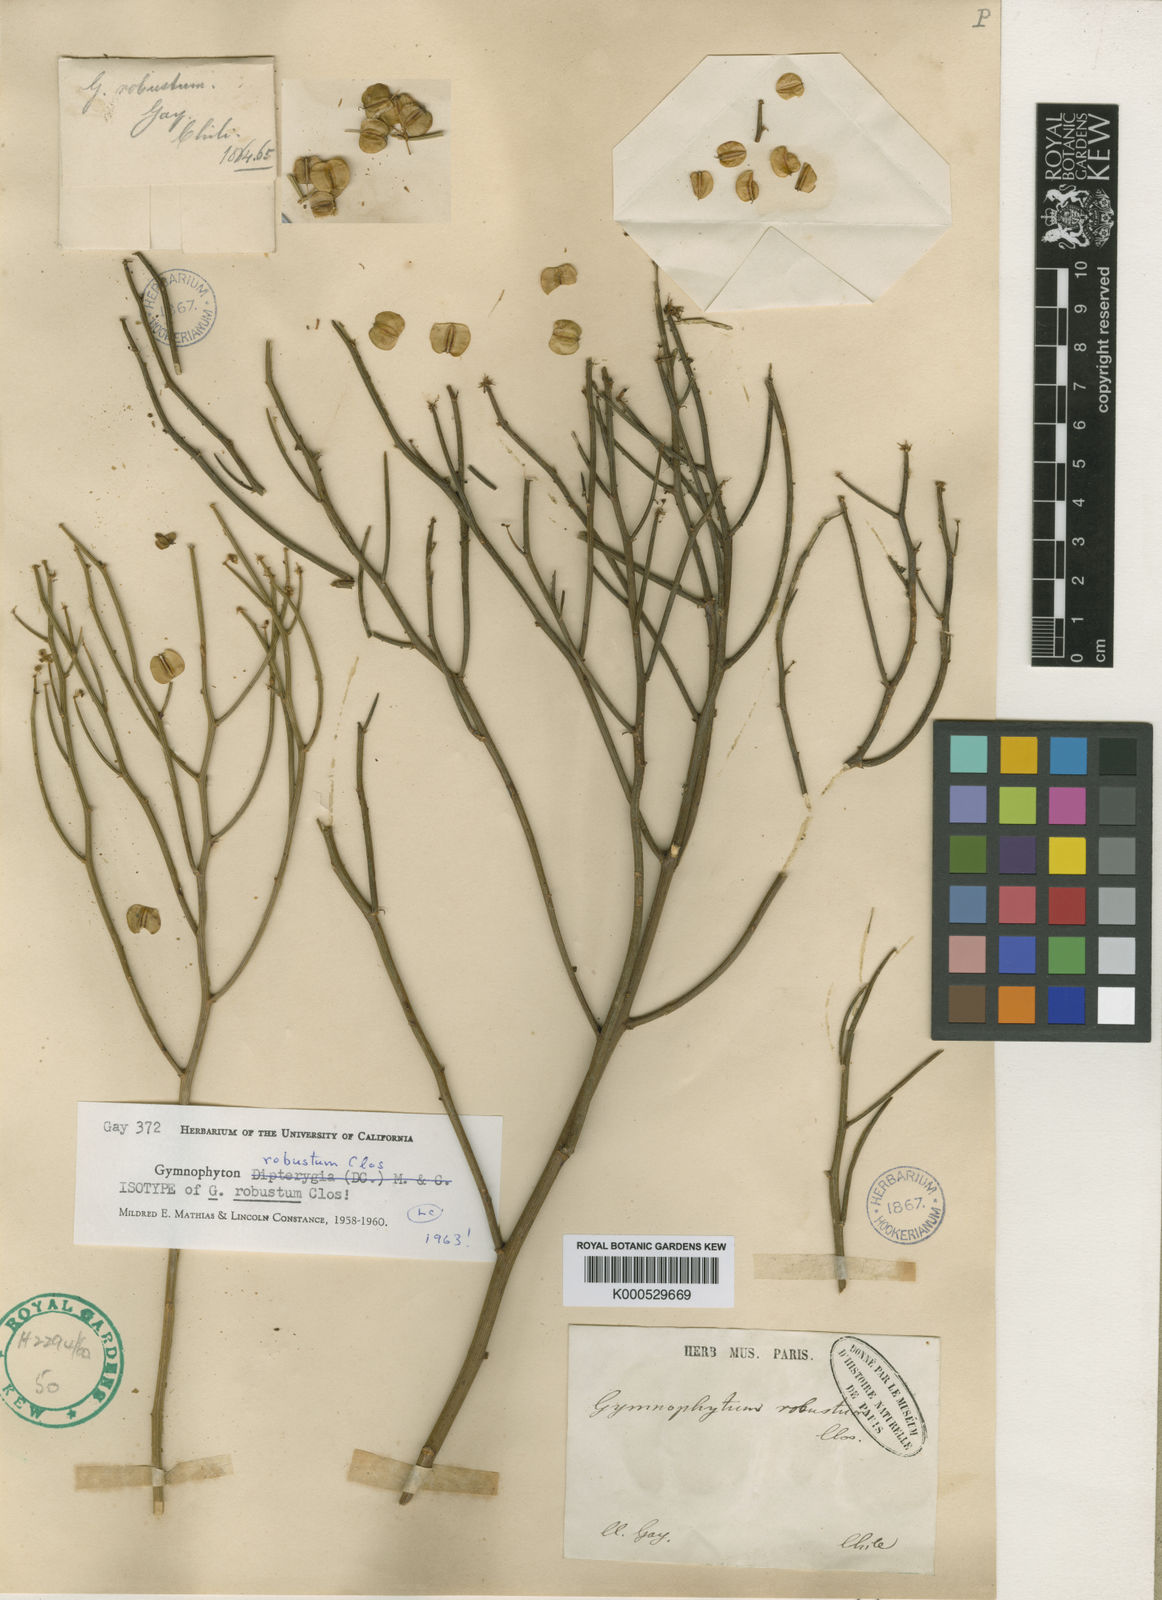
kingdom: Plantae
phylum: Tracheophyta
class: Magnoliopsida
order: Apiales
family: Apiaceae
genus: Gymnophyton
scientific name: Gymnophyton robustum
